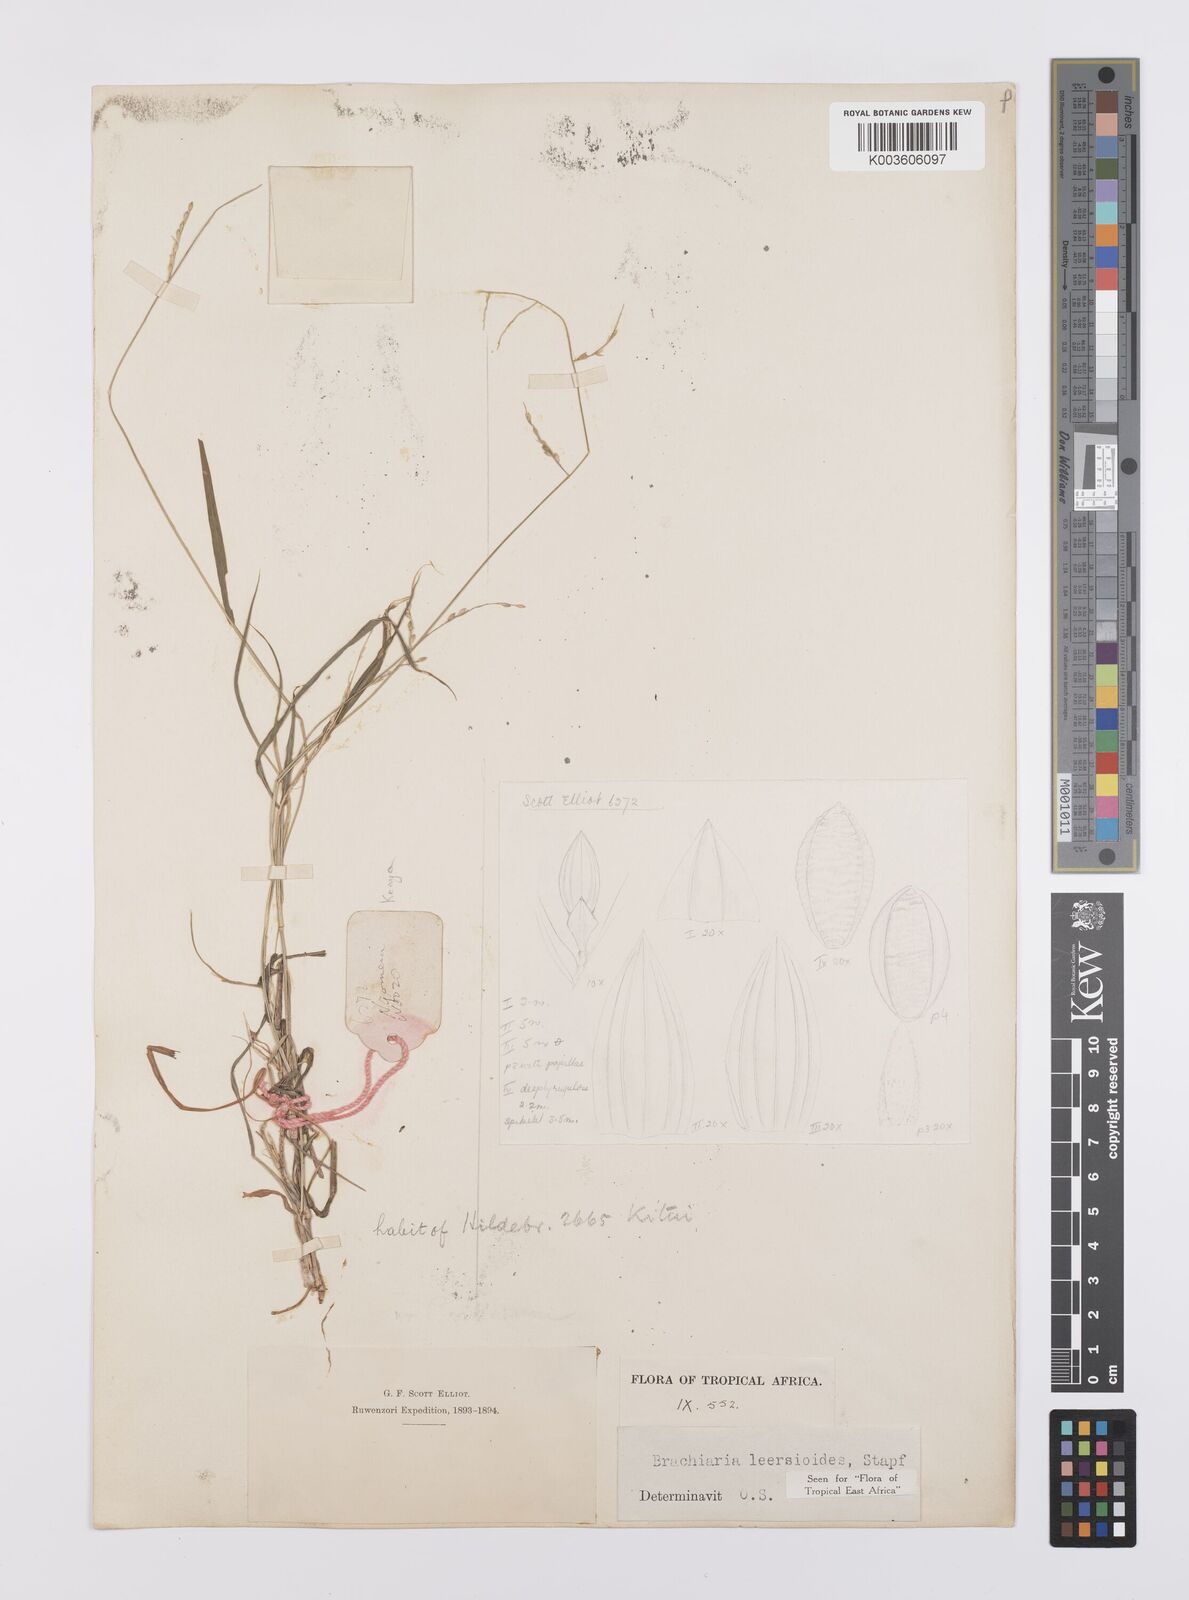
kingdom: Plantae
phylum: Tracheophyta
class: Liliopsida
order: Poales
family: Poaceae
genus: Urochloa
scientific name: Urochloa leersioides
